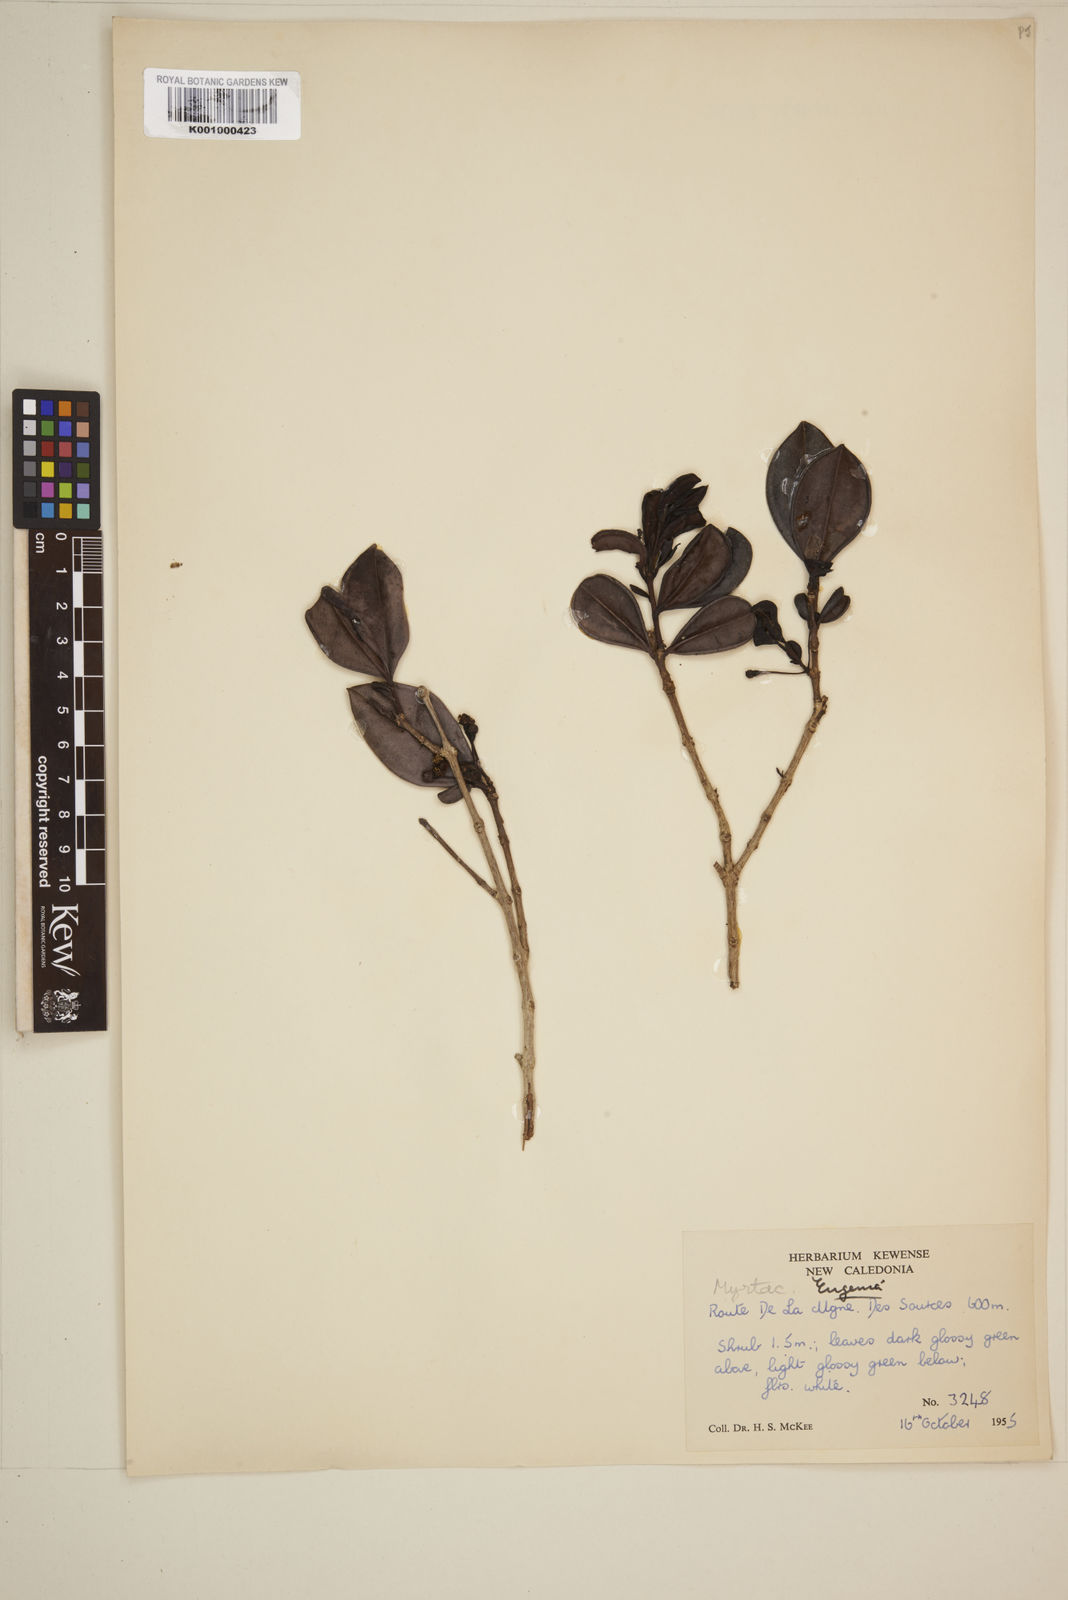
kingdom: Plantae
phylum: Tracheophyta
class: Magnoliopsida
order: Myrtales
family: Myrtaceae
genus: Eugenia
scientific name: Eugenia
